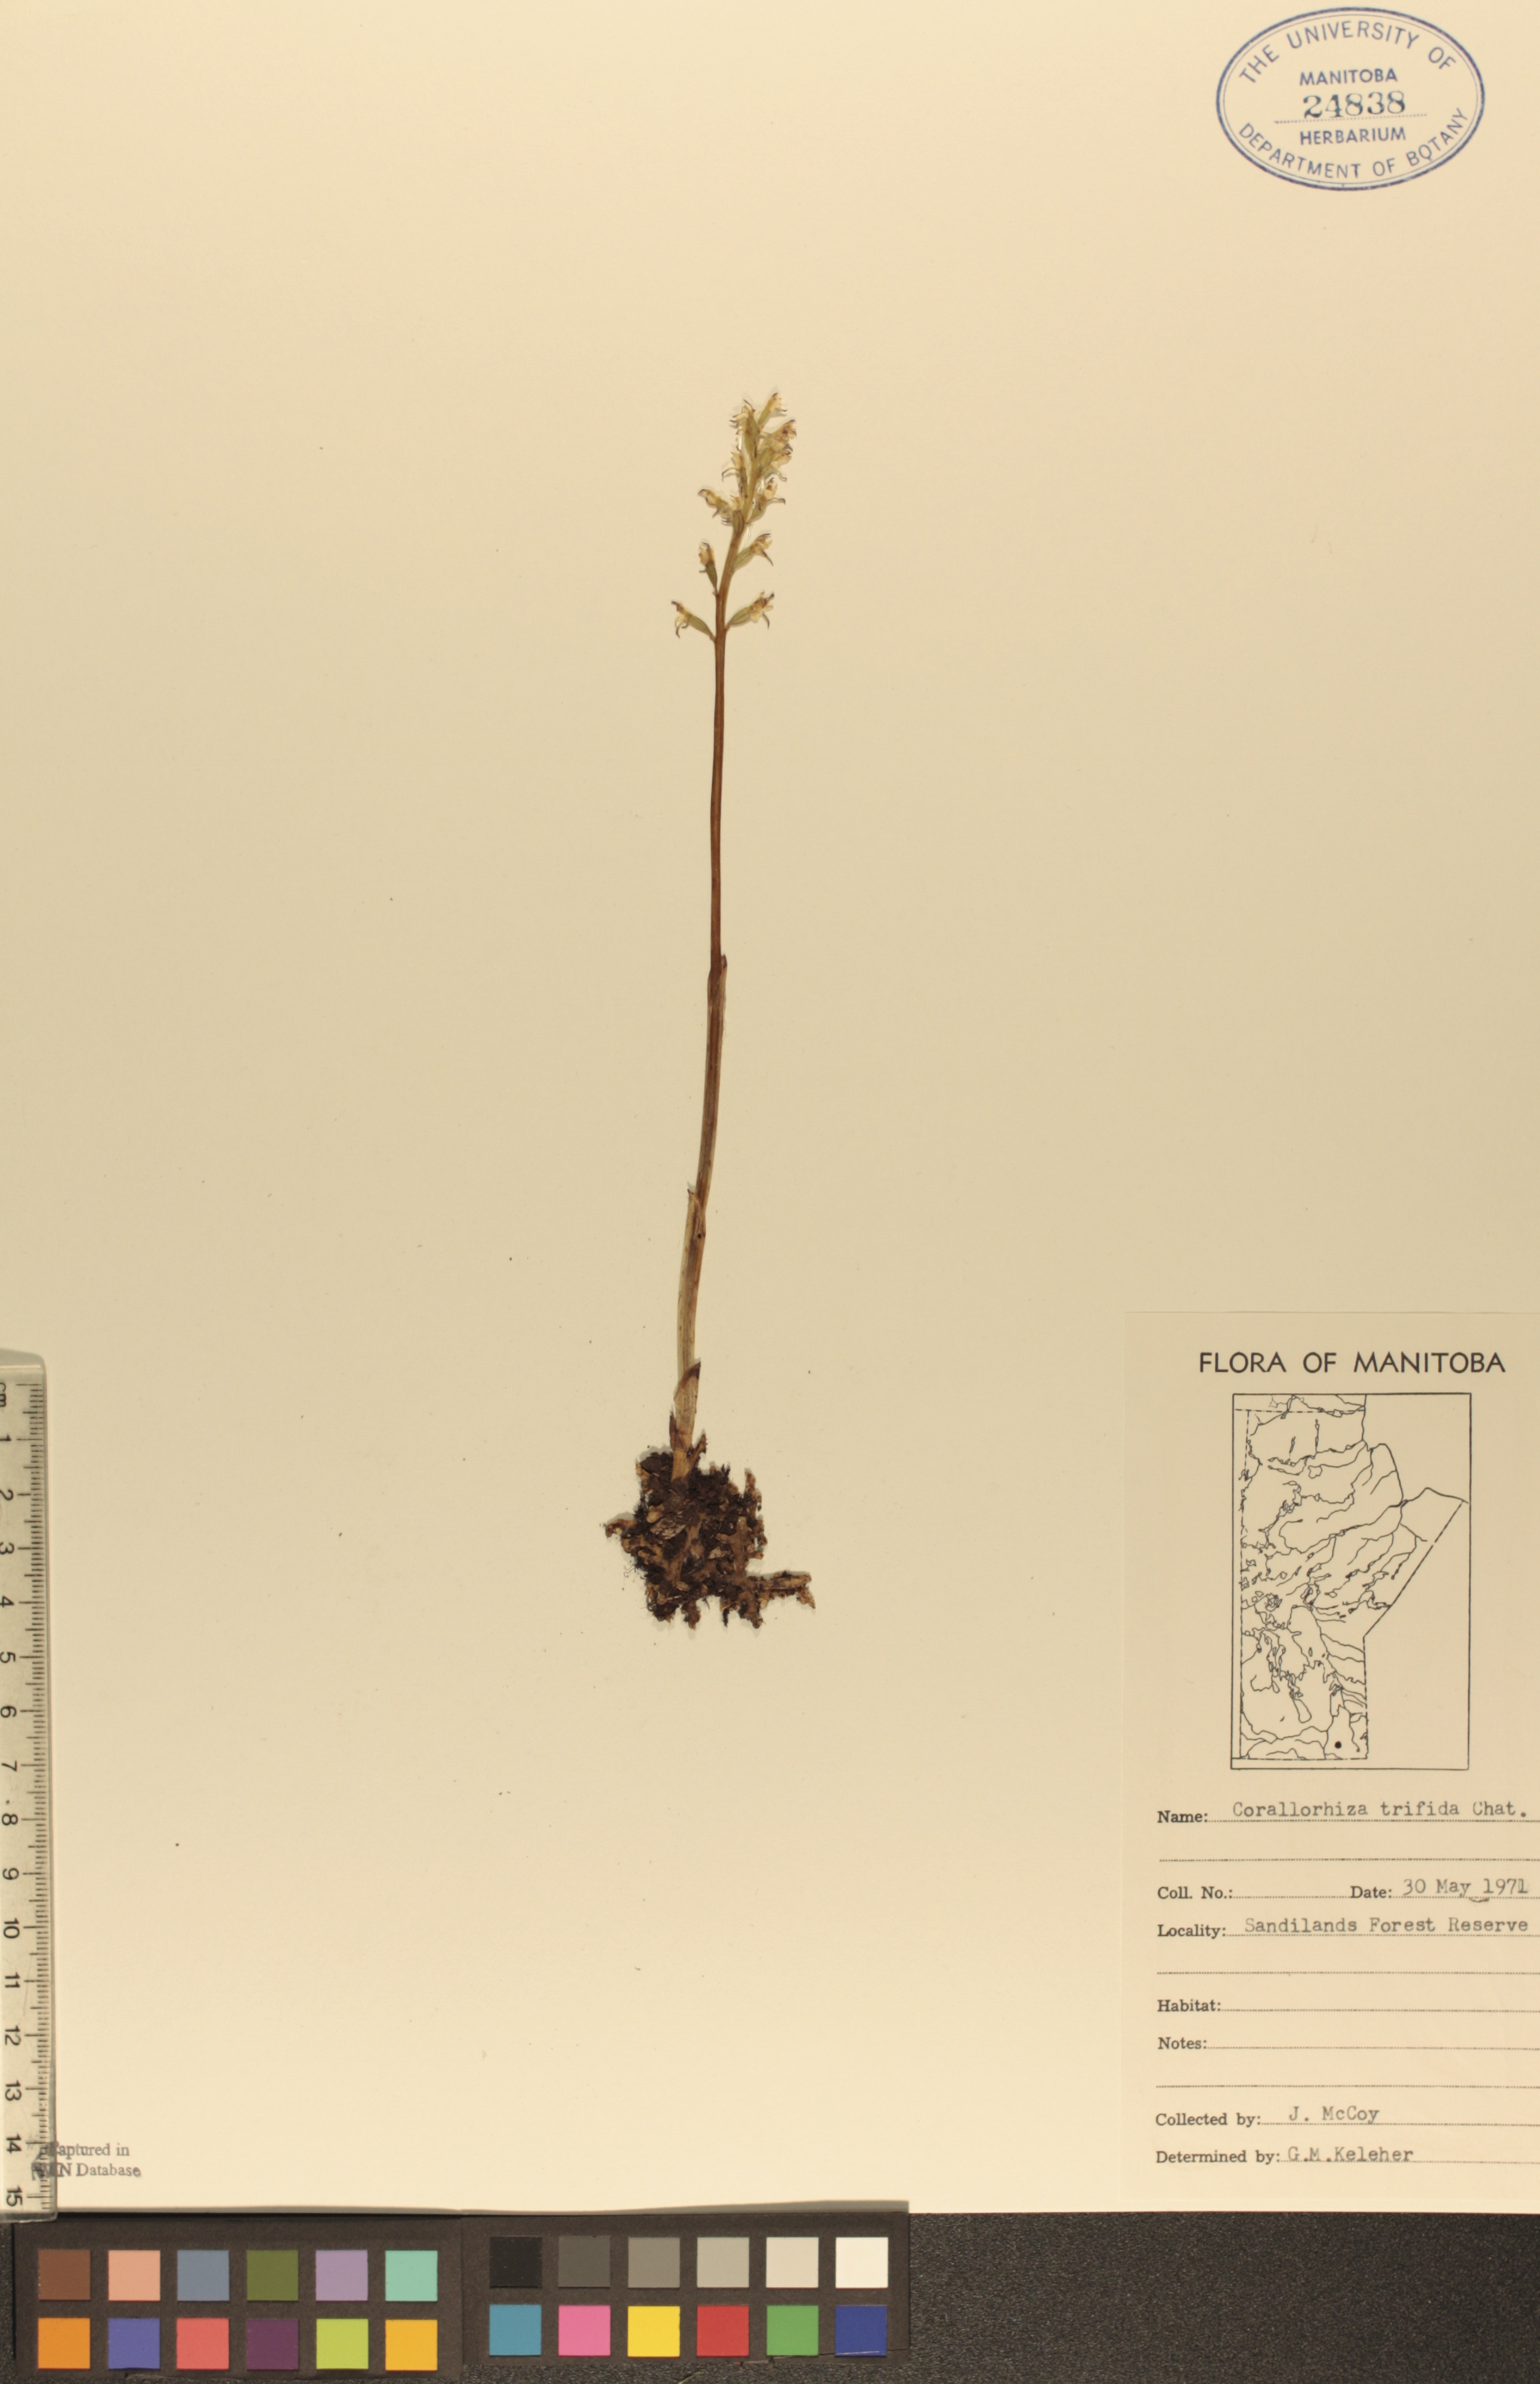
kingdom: Plantae
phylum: Tracheophyta
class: Liliopsida
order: Asparagales
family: Orchidaceae
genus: Corallorhiza
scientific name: Corallorhiza trifida
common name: Yellow coralroot
